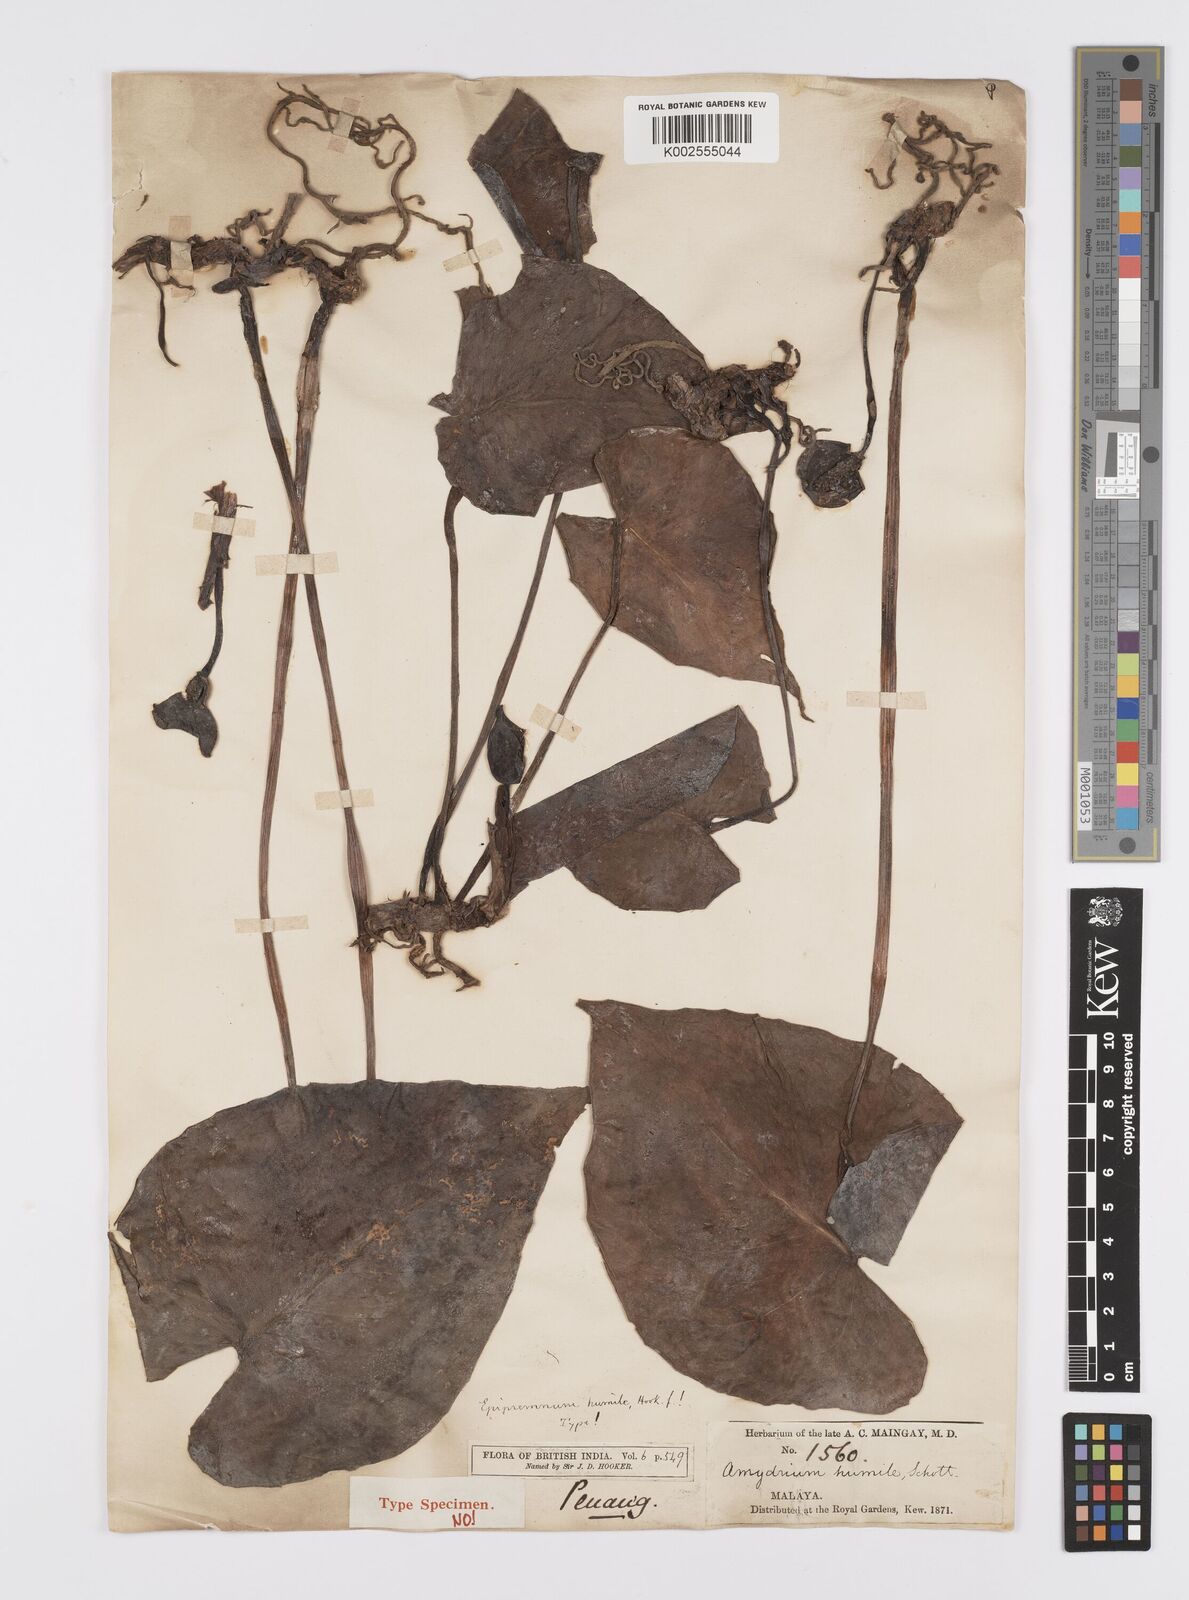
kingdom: Plantae
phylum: Tracheophyta
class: Liliopsida
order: Alismatales
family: Araceae
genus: Amydrium
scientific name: Amydrium humile
